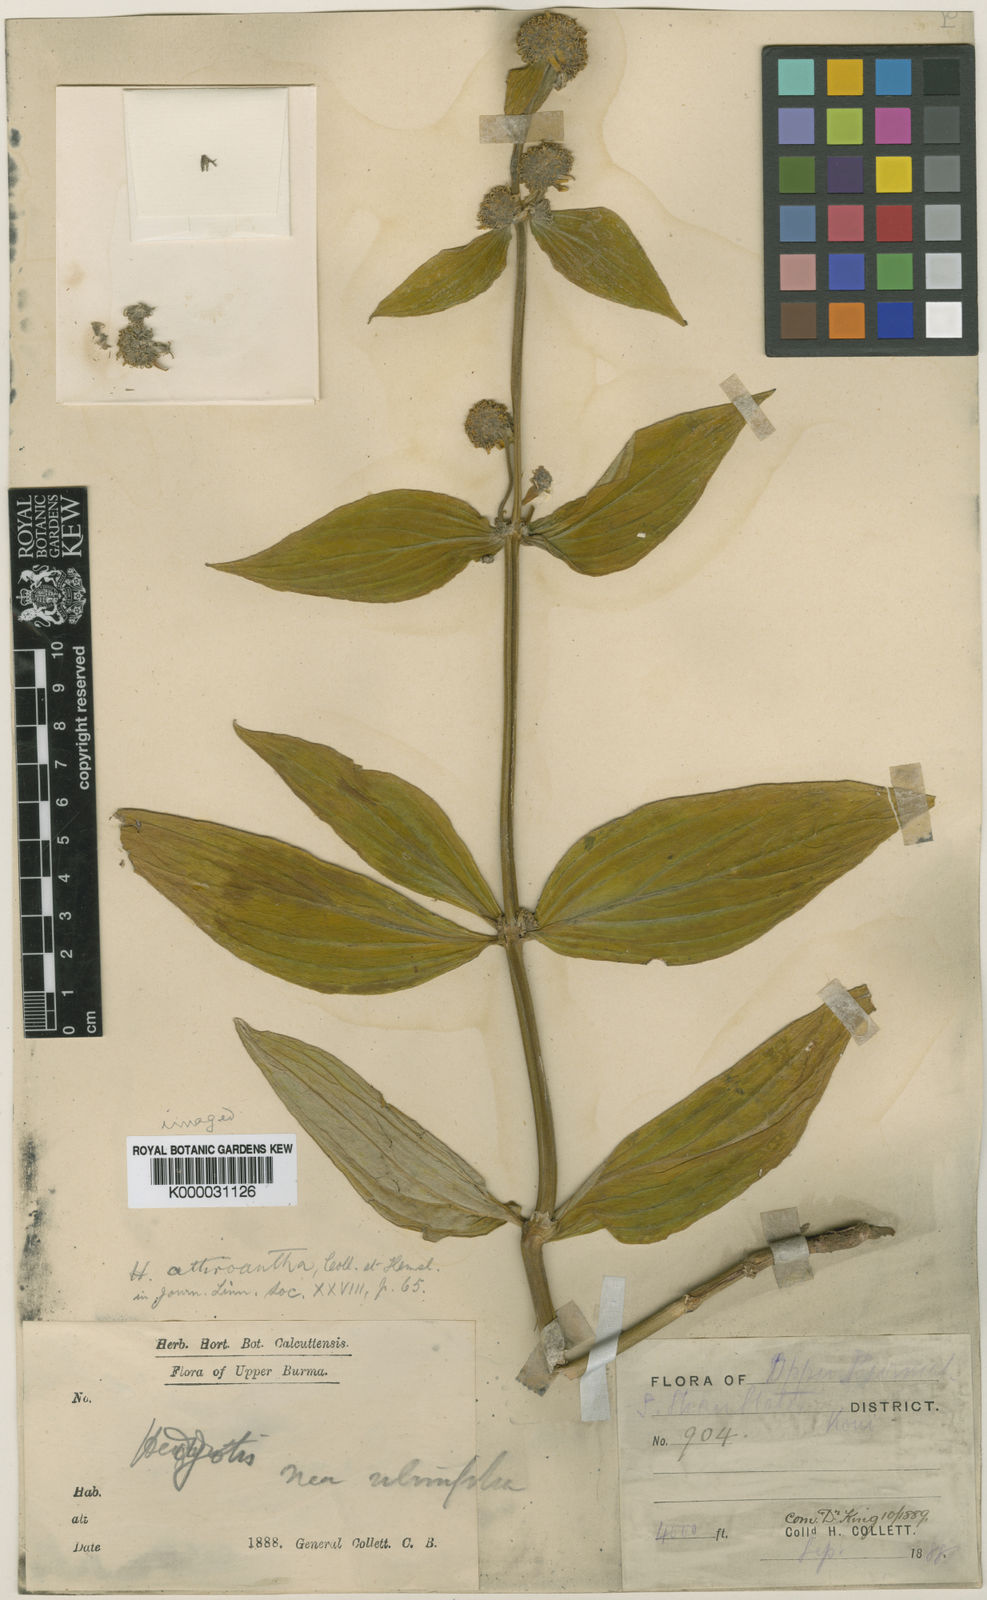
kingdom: Plantae
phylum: Tracheophyta
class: Magnoliopsida
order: Gentianales
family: Rubiaceae
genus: Hedyotis
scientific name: Hedyotis athroantha
